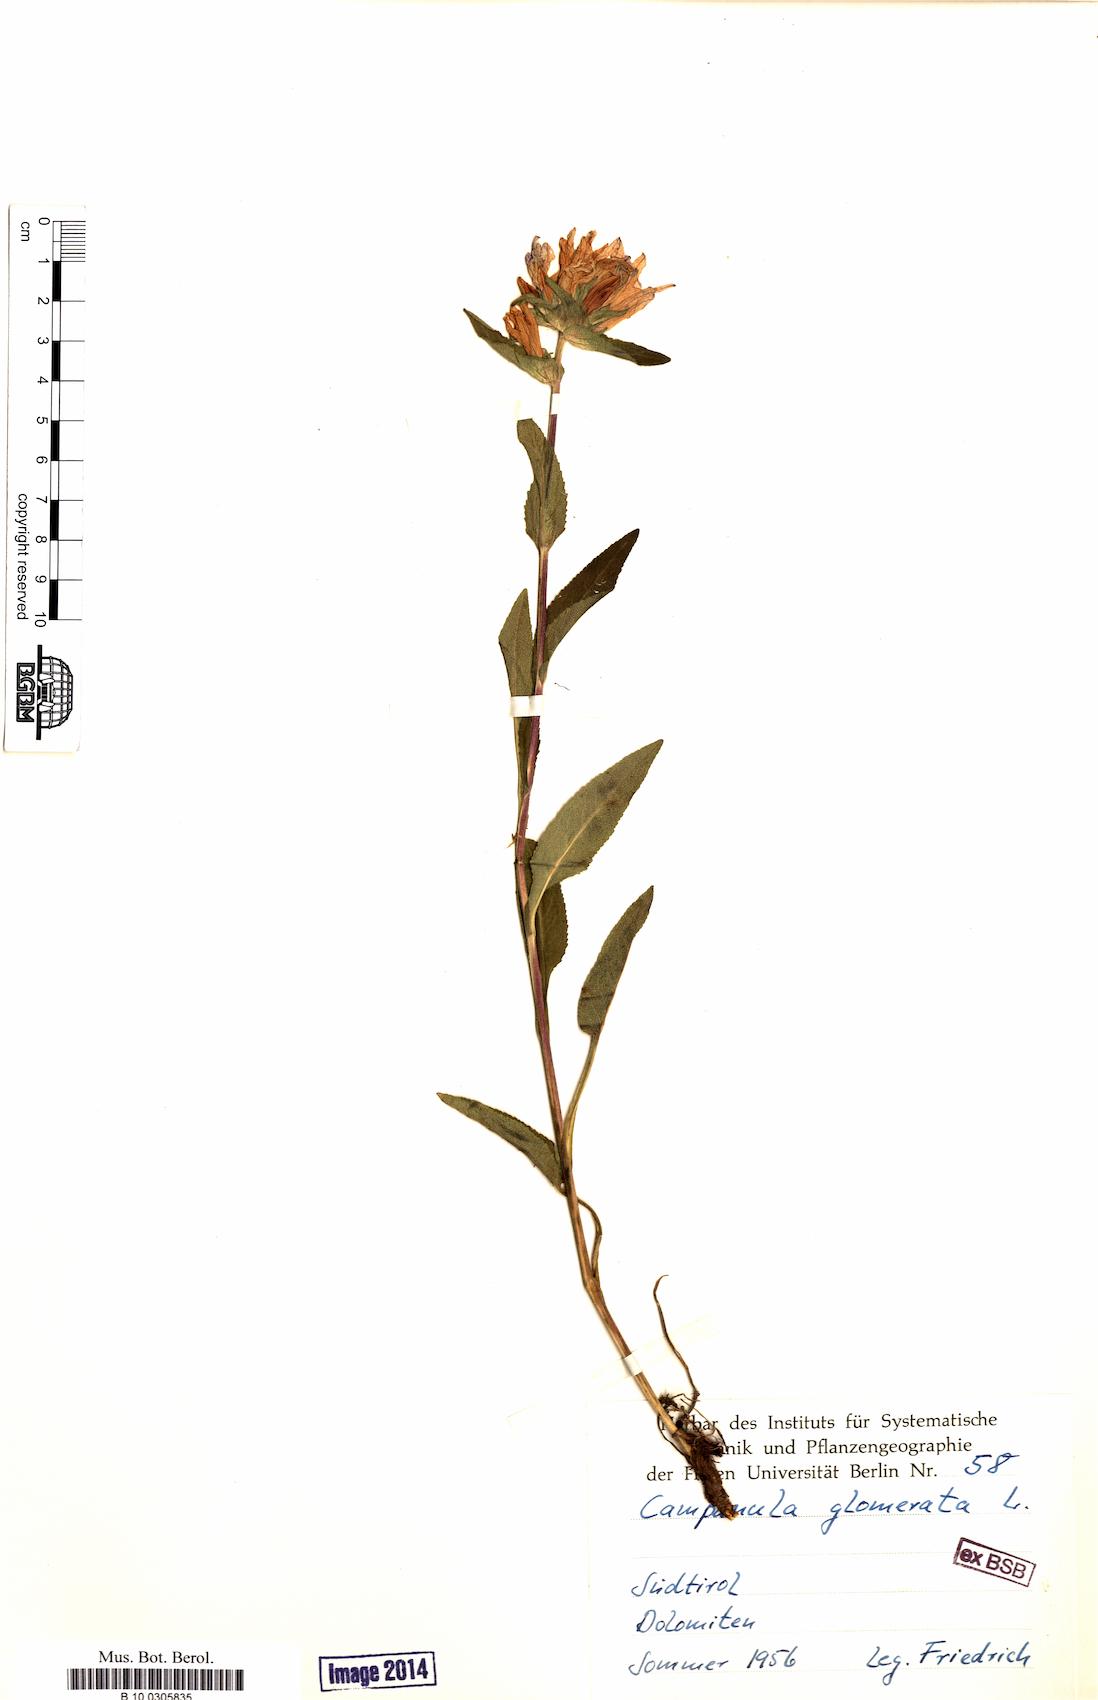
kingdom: Plantae
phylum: Tracheophyta
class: Magnoliopsida
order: Asterales
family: Campanulaceae
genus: Campanula
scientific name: Campanula glomerata
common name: Clustered bellflower
